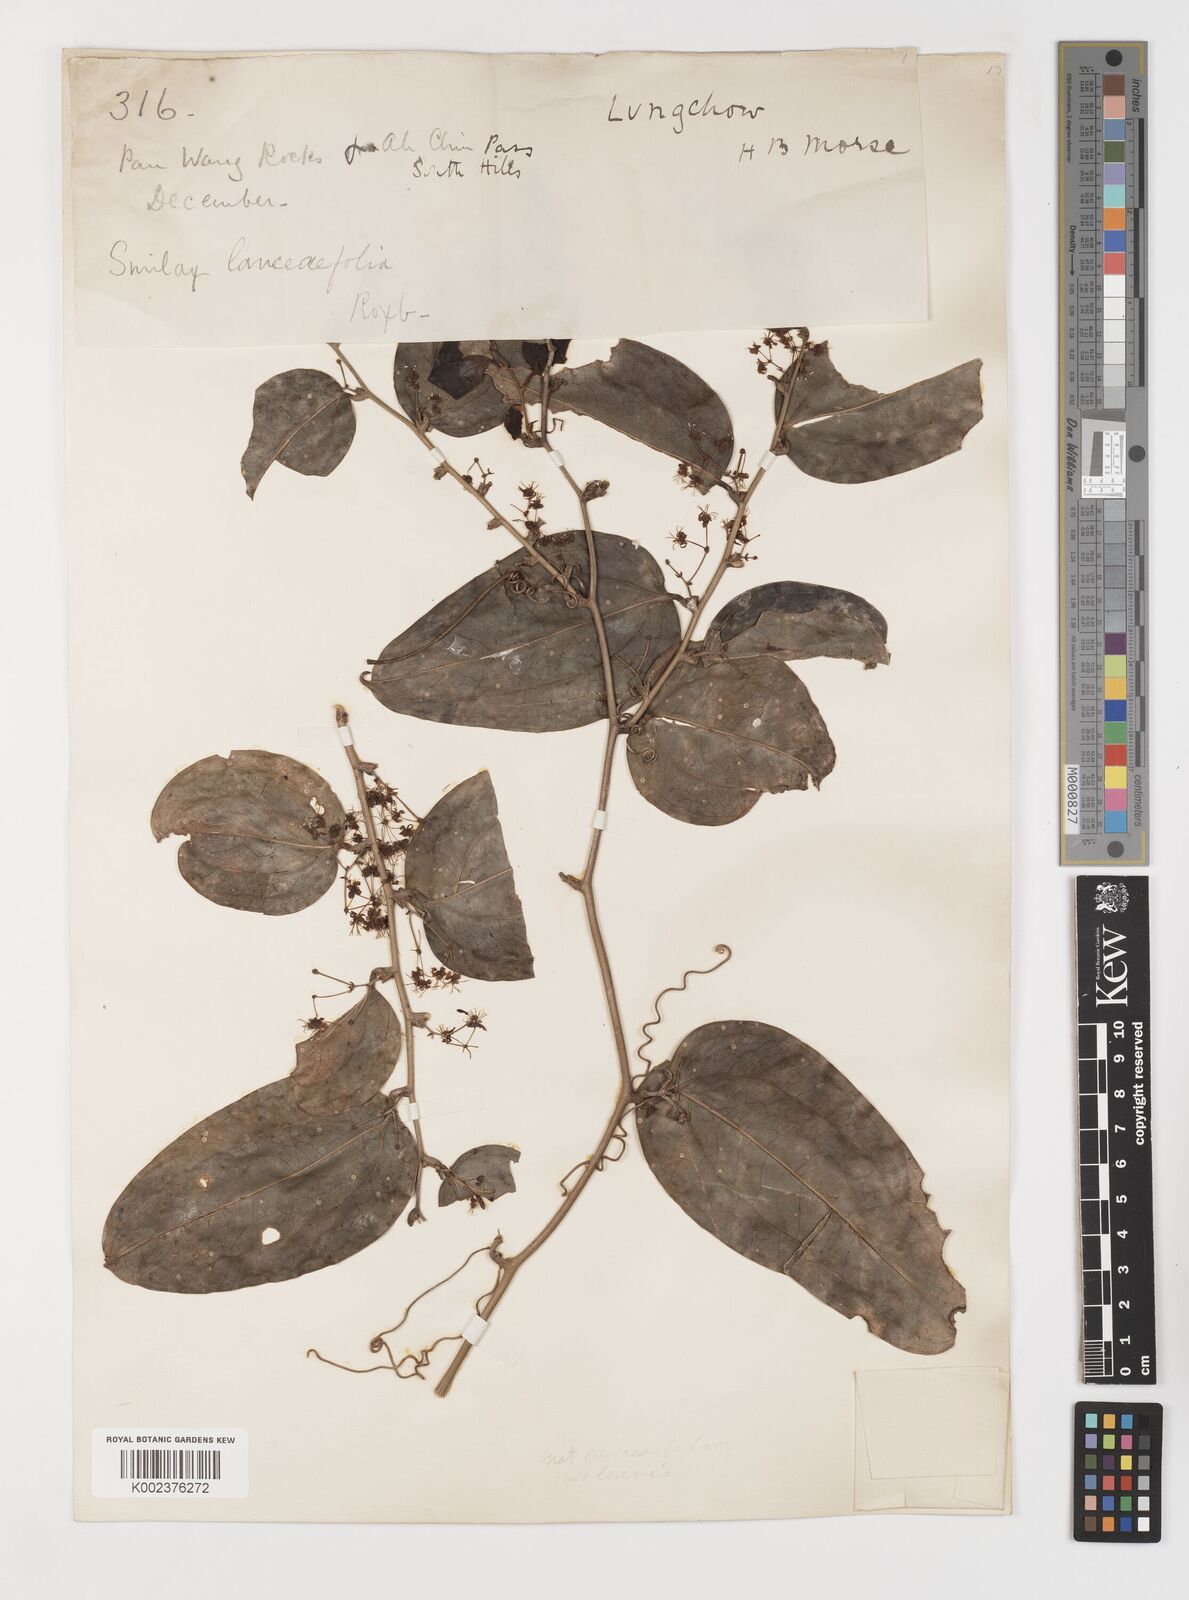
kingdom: Plantae
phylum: Tracheophyta
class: Liliopsida
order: Liliales
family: Smilacaceae
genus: Smilax
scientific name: Smilax megacarpa
